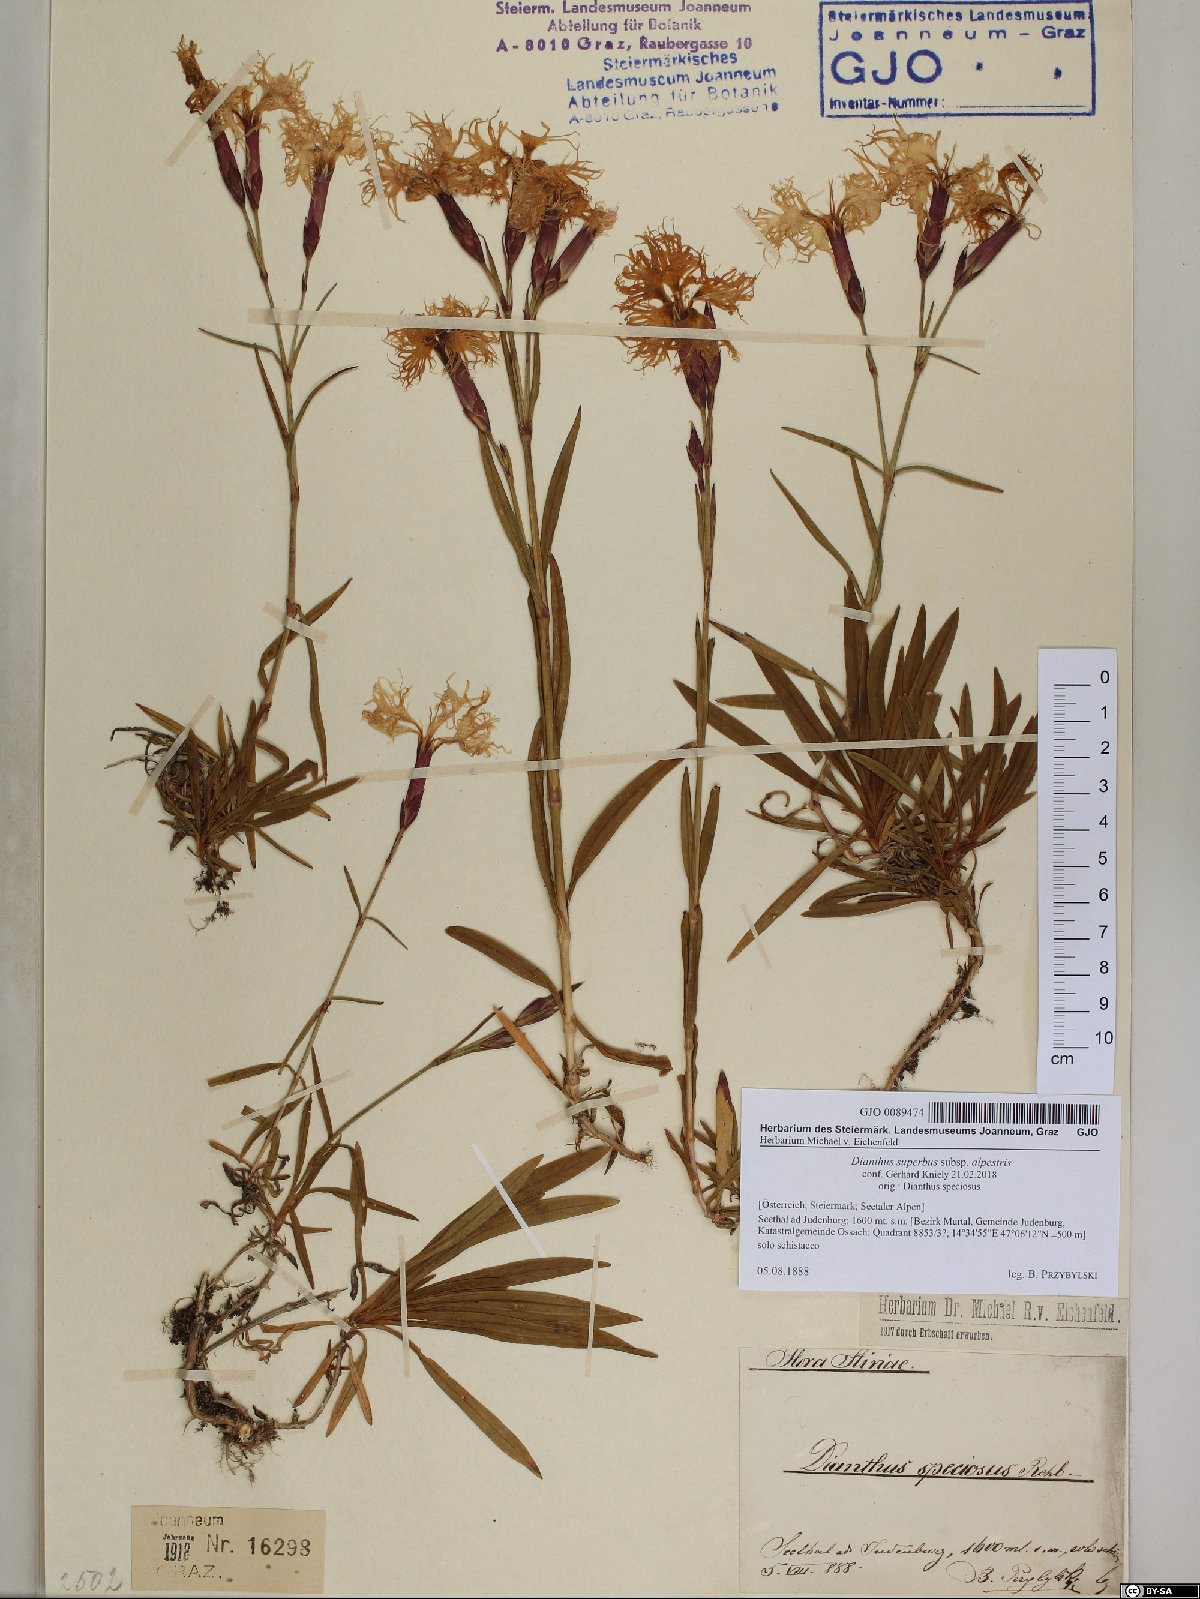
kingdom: Plantae
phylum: Tracheophyta
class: Magnoliopsida
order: Caryophyllales
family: Caryophyllaceae
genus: Dianthus
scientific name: Dianthus superbus
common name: Fringed pink
